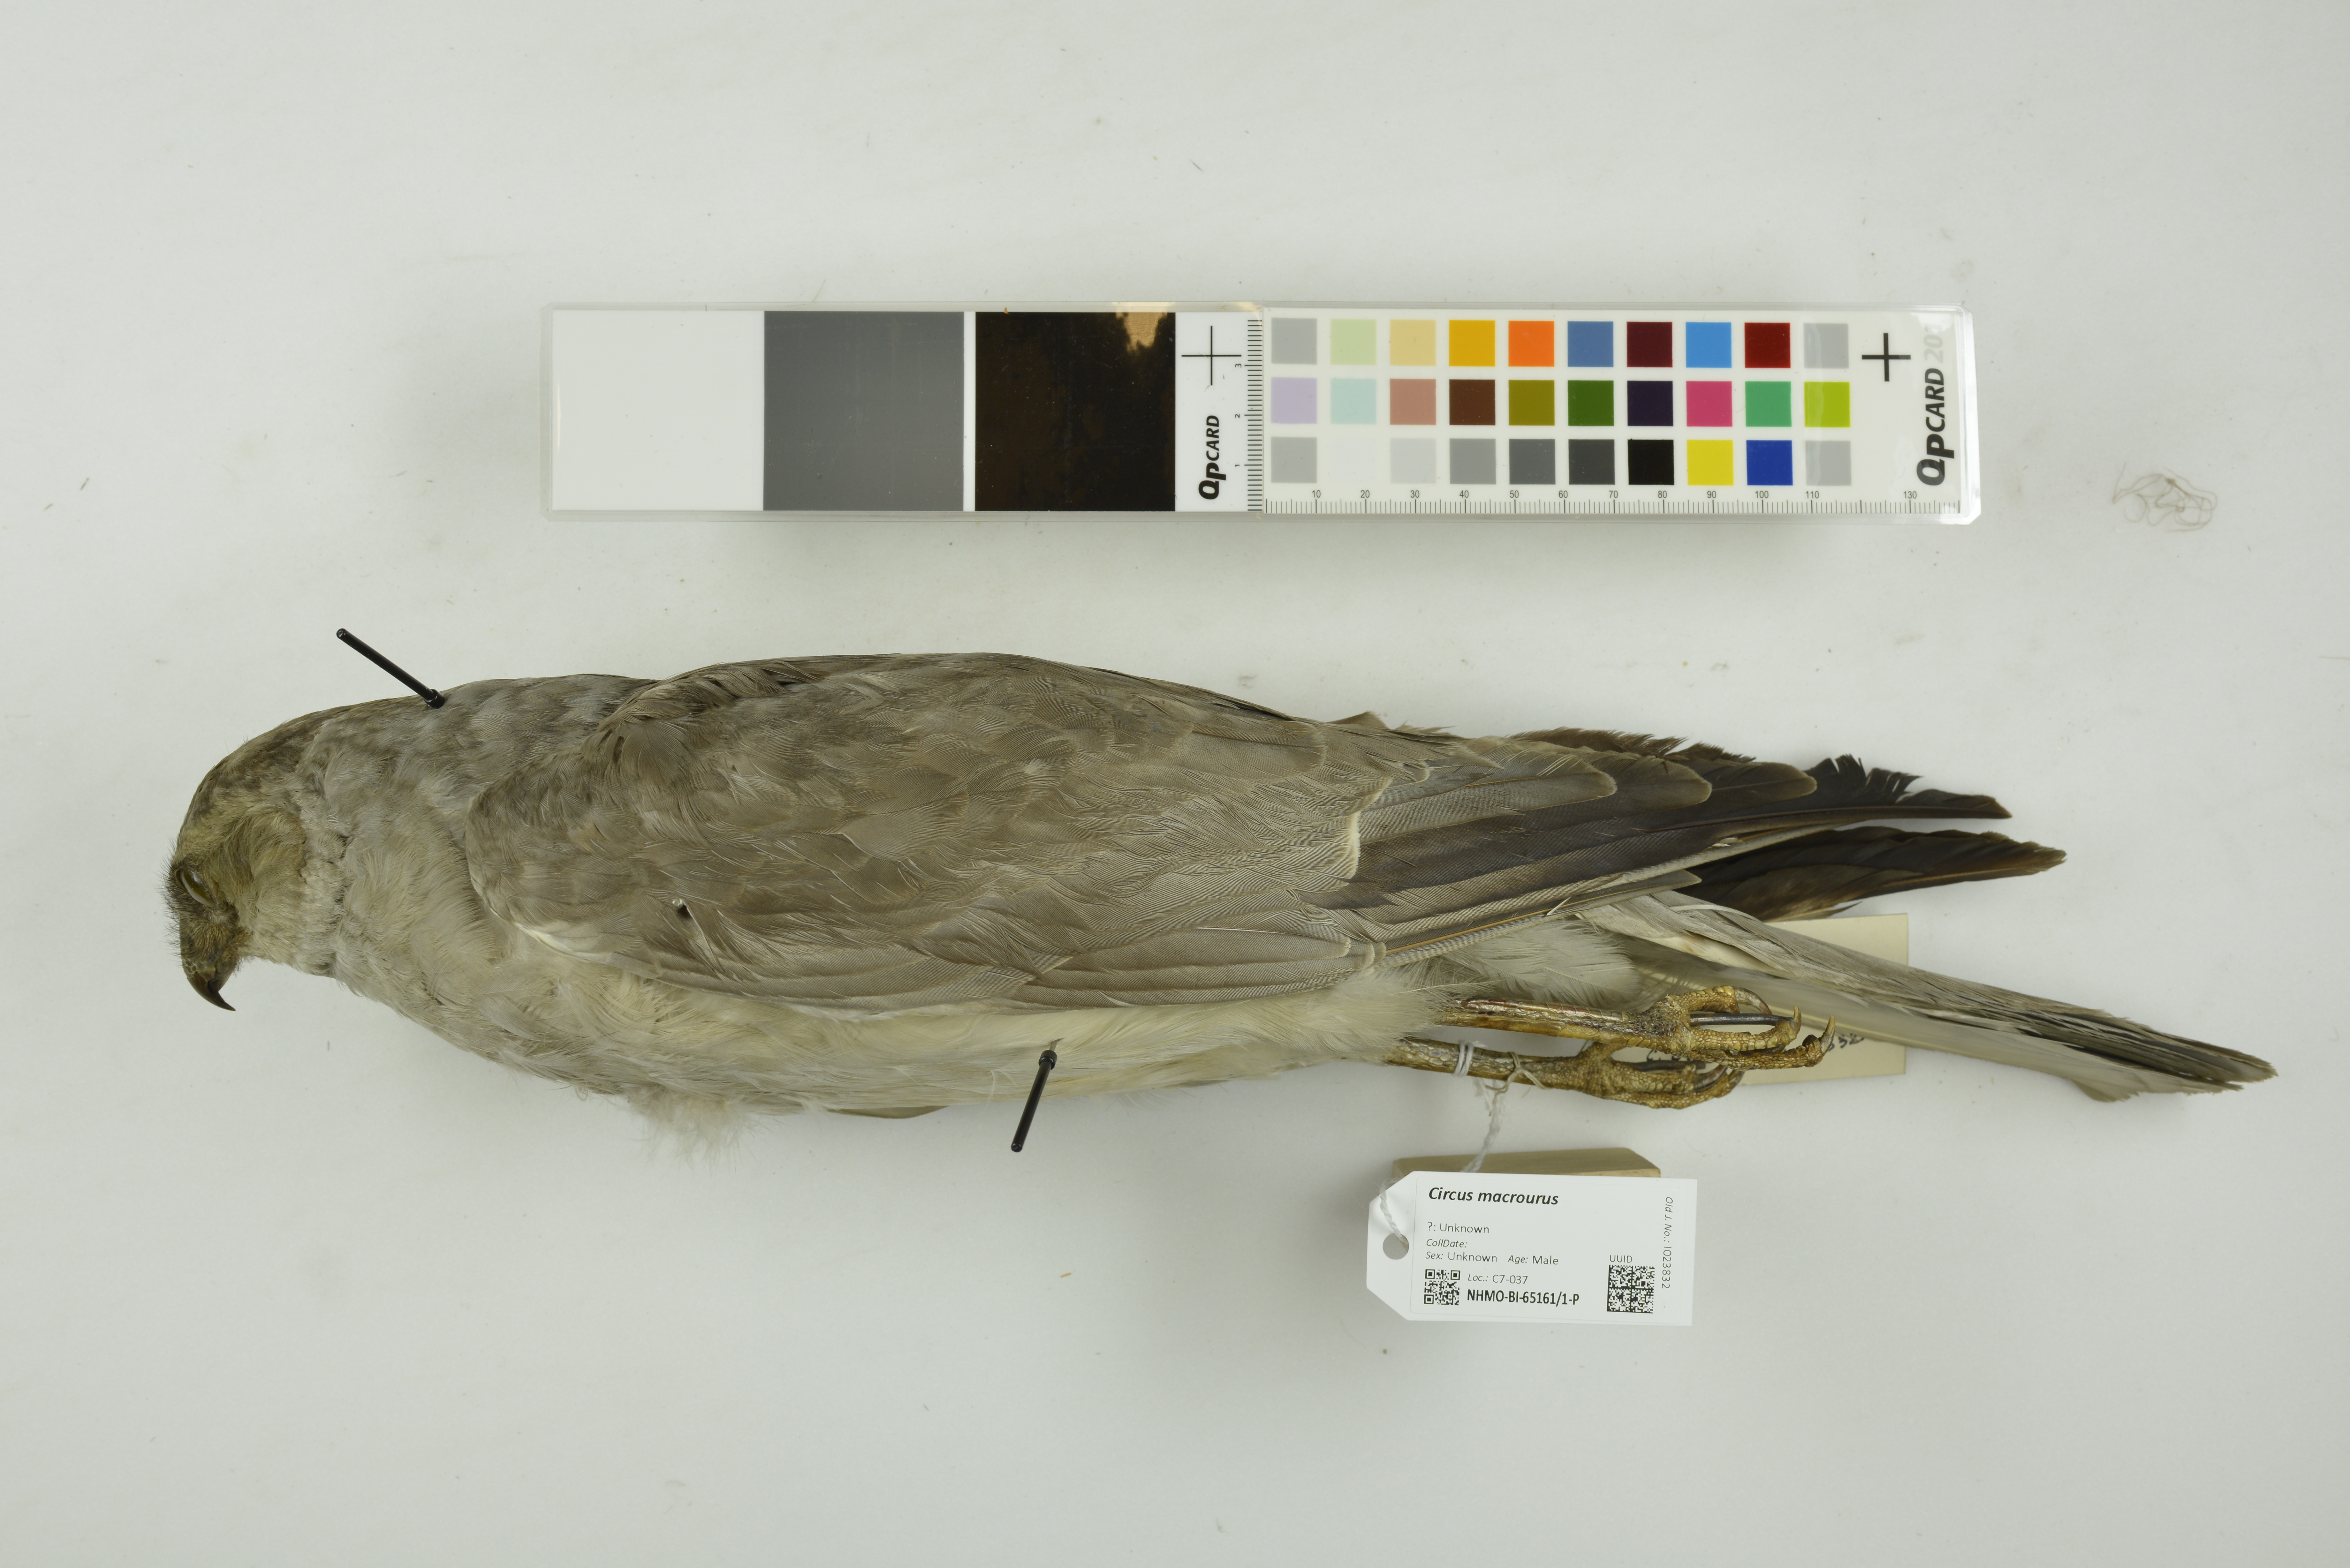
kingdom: Animalia
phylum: Chordata
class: Aves
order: Accipitriformes
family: Accipitridae
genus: Circus
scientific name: Circus macrourus
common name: Pallid harrier
